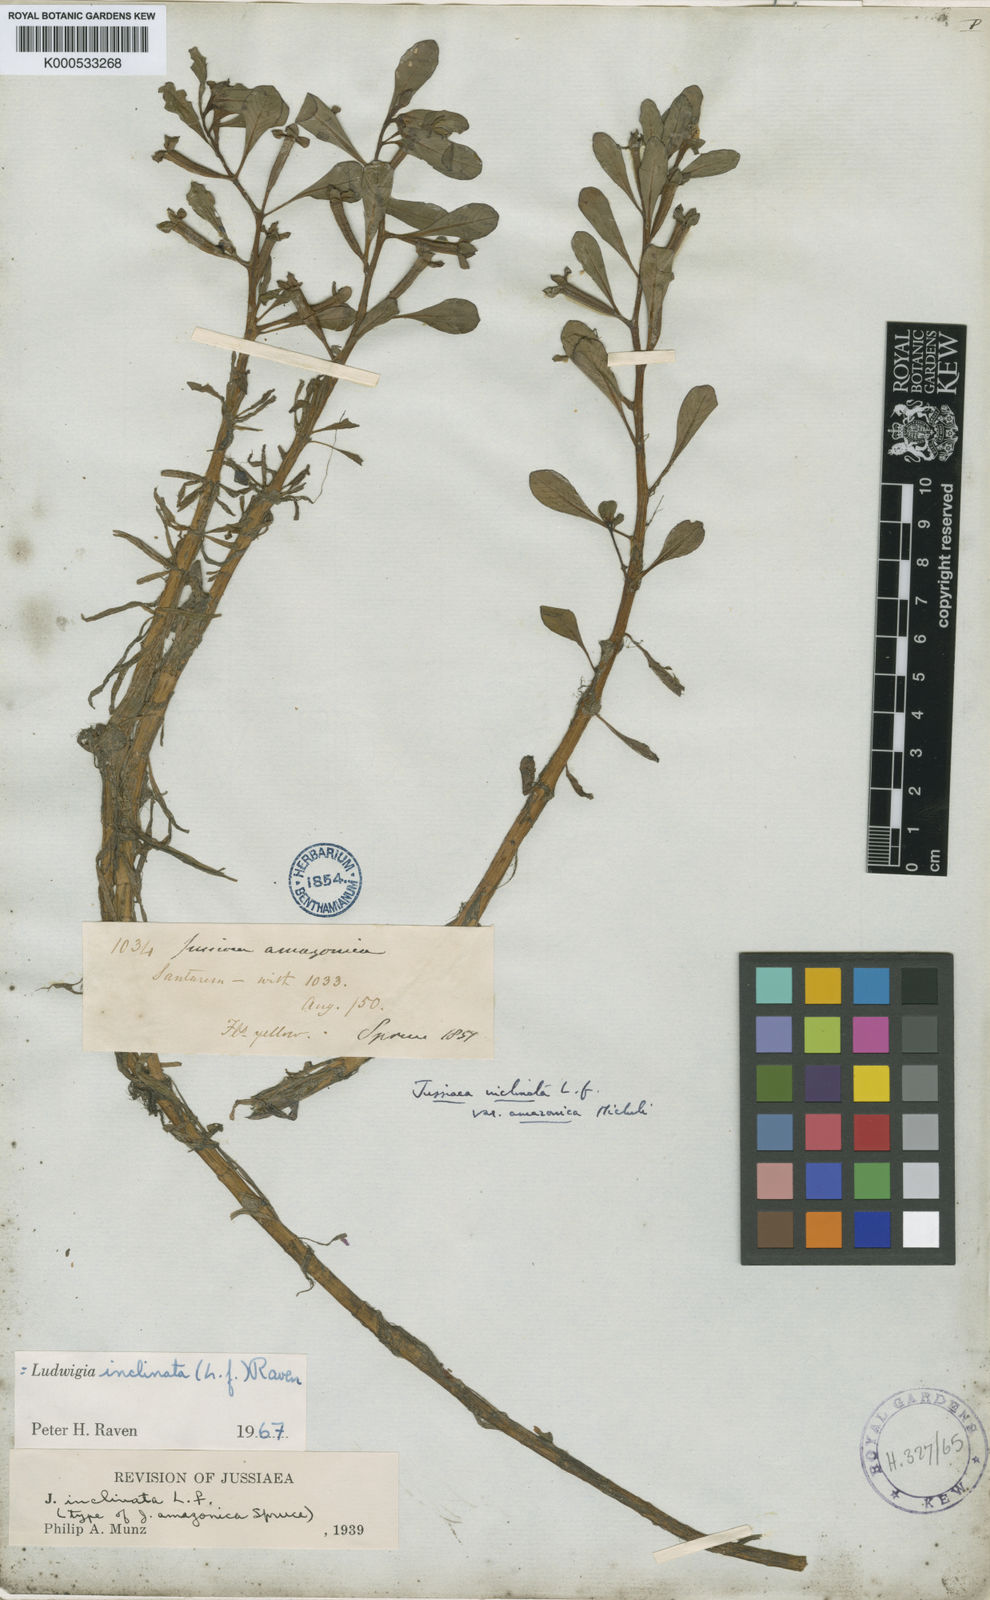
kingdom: Plantae
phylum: Tracheophyta
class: Magnoliopsida
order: Myrtales
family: Onagraceae
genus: Ludwigia
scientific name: Ludwigia
